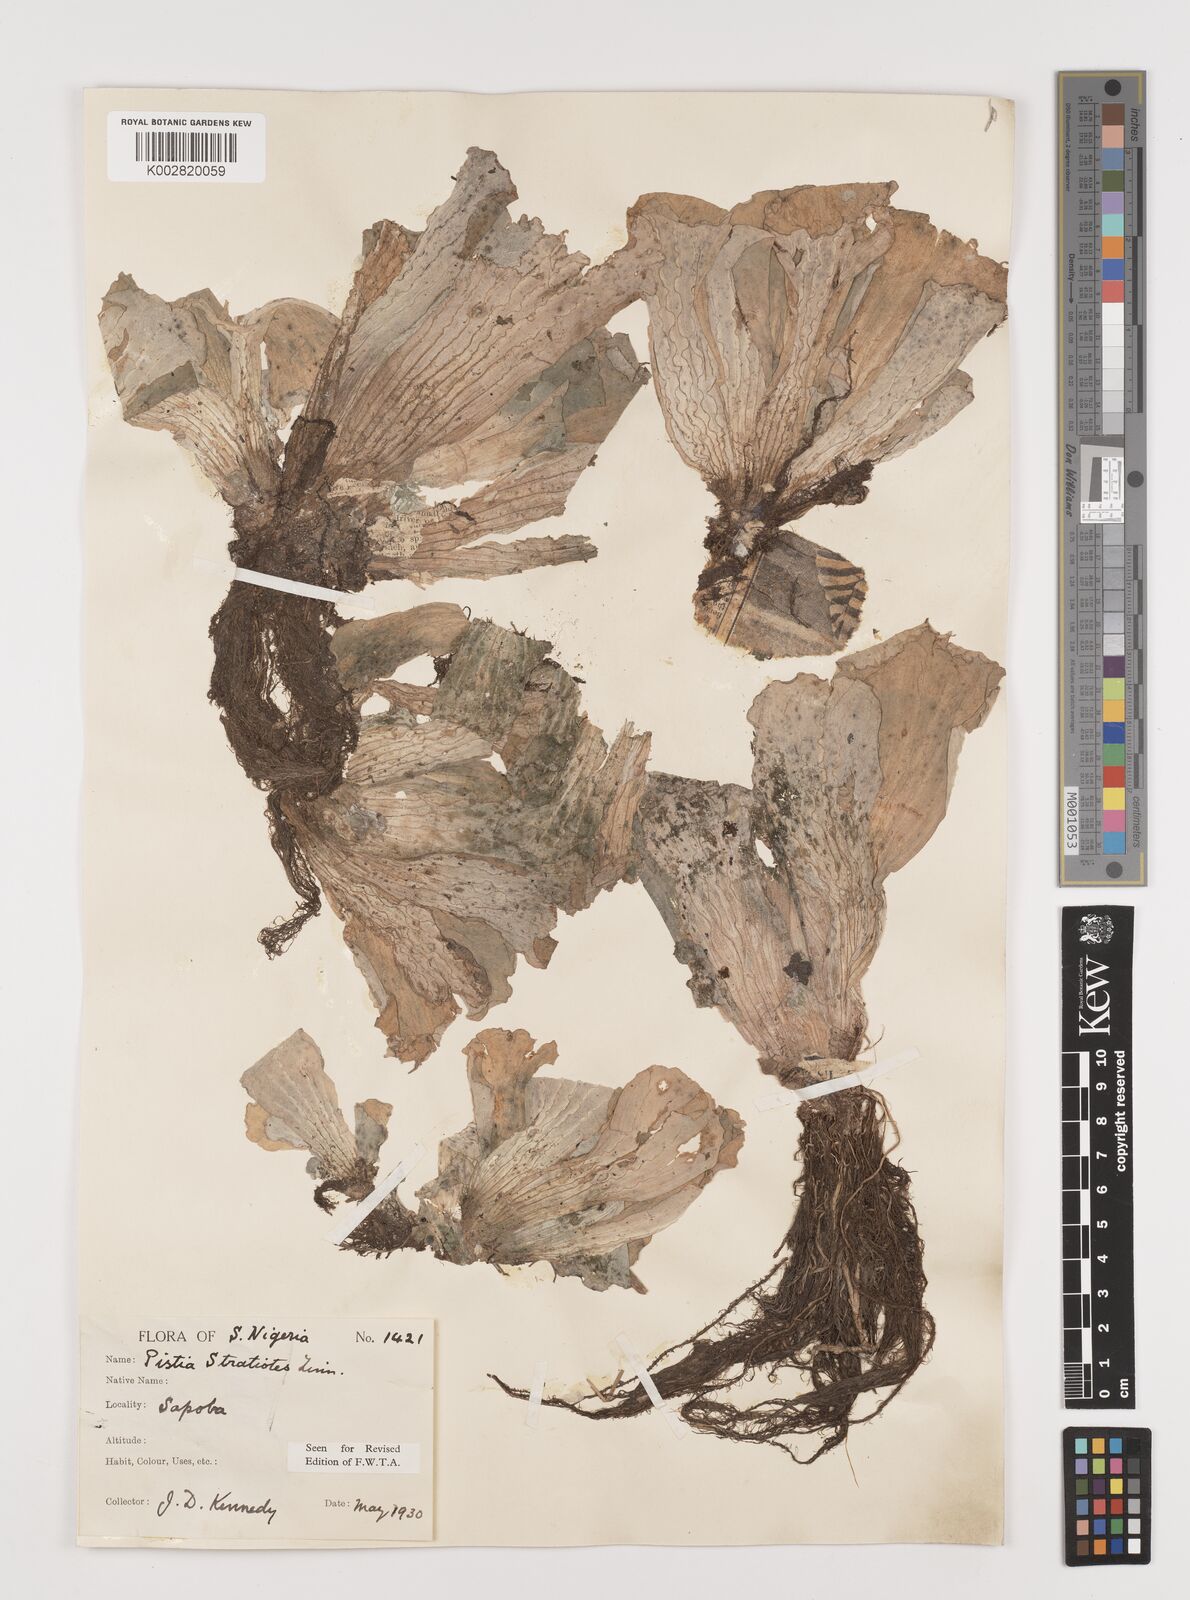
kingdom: Plantae
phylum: Tracheophyta
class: Liliopsida
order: Alismatales
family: Araceae
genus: Pistia
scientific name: Pistia stratiotes
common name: Water lettuce
